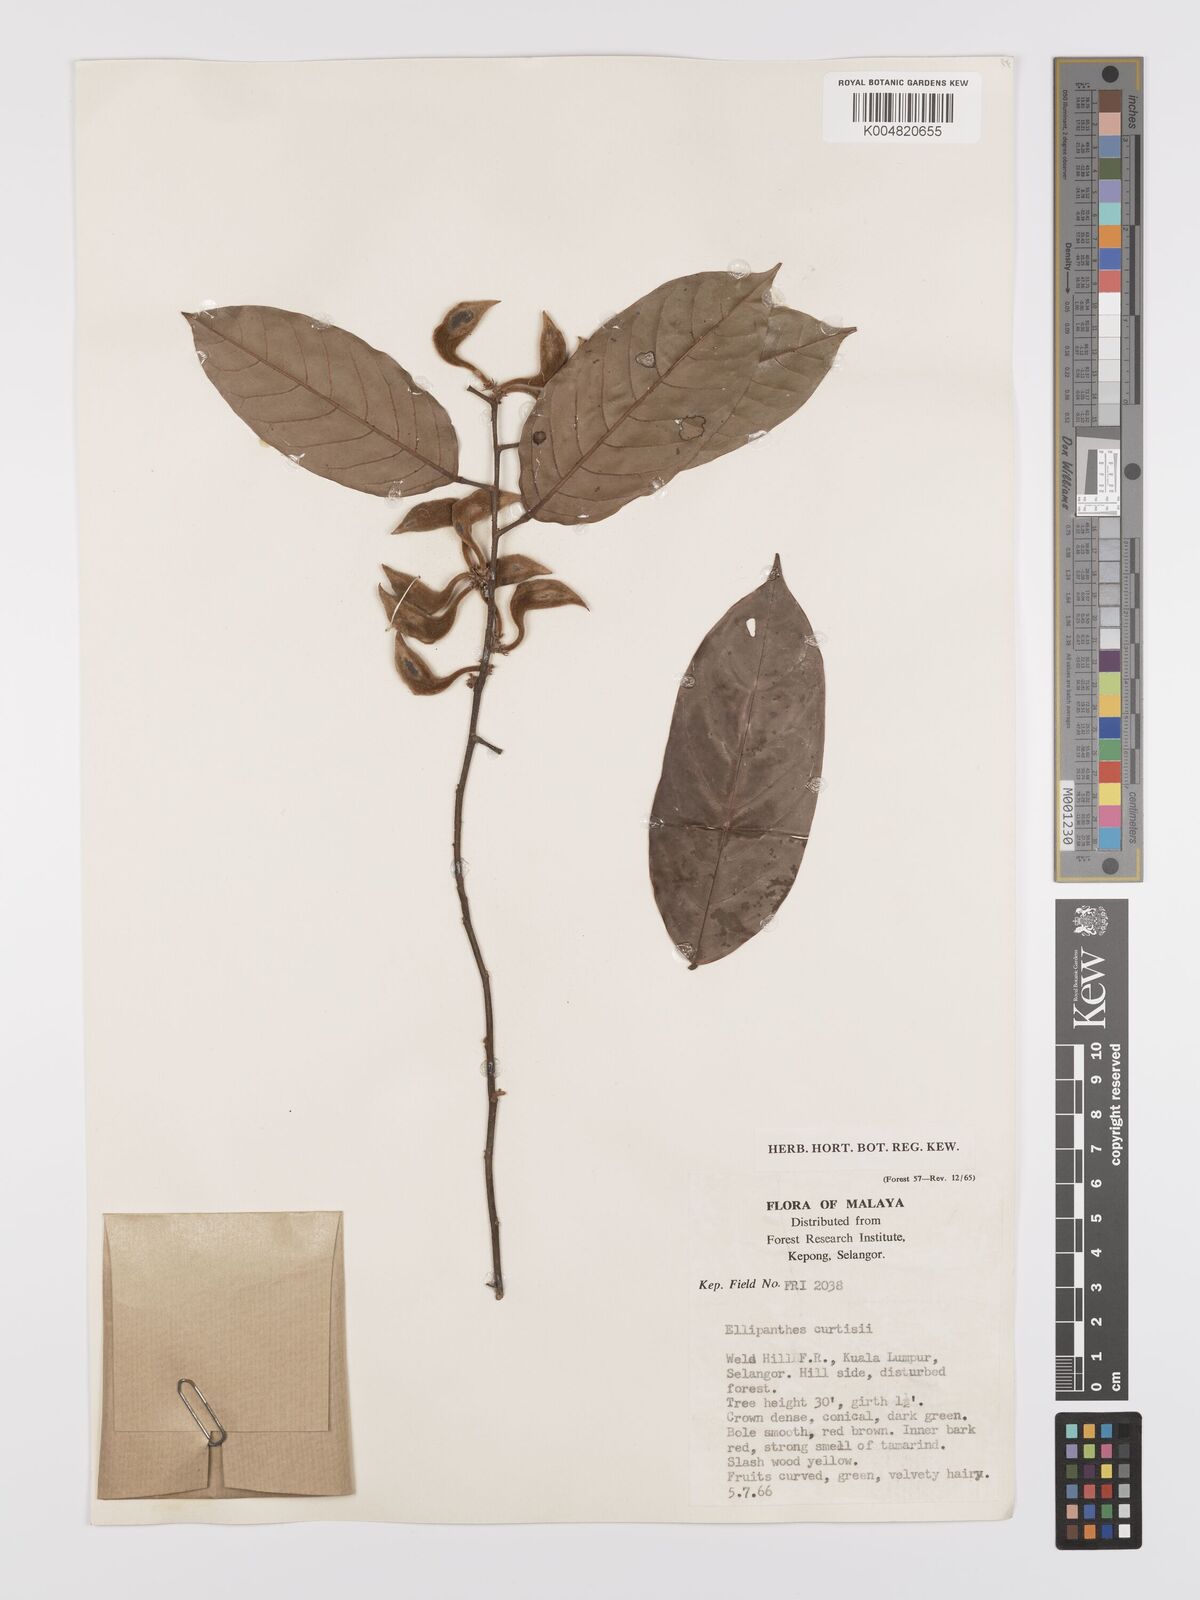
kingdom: Plantae
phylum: Tracheophyta
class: Magnoliopsida
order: Oxalidales
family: Connaraceae
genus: Ellipanthus
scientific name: Ellipanthus tomentosus
